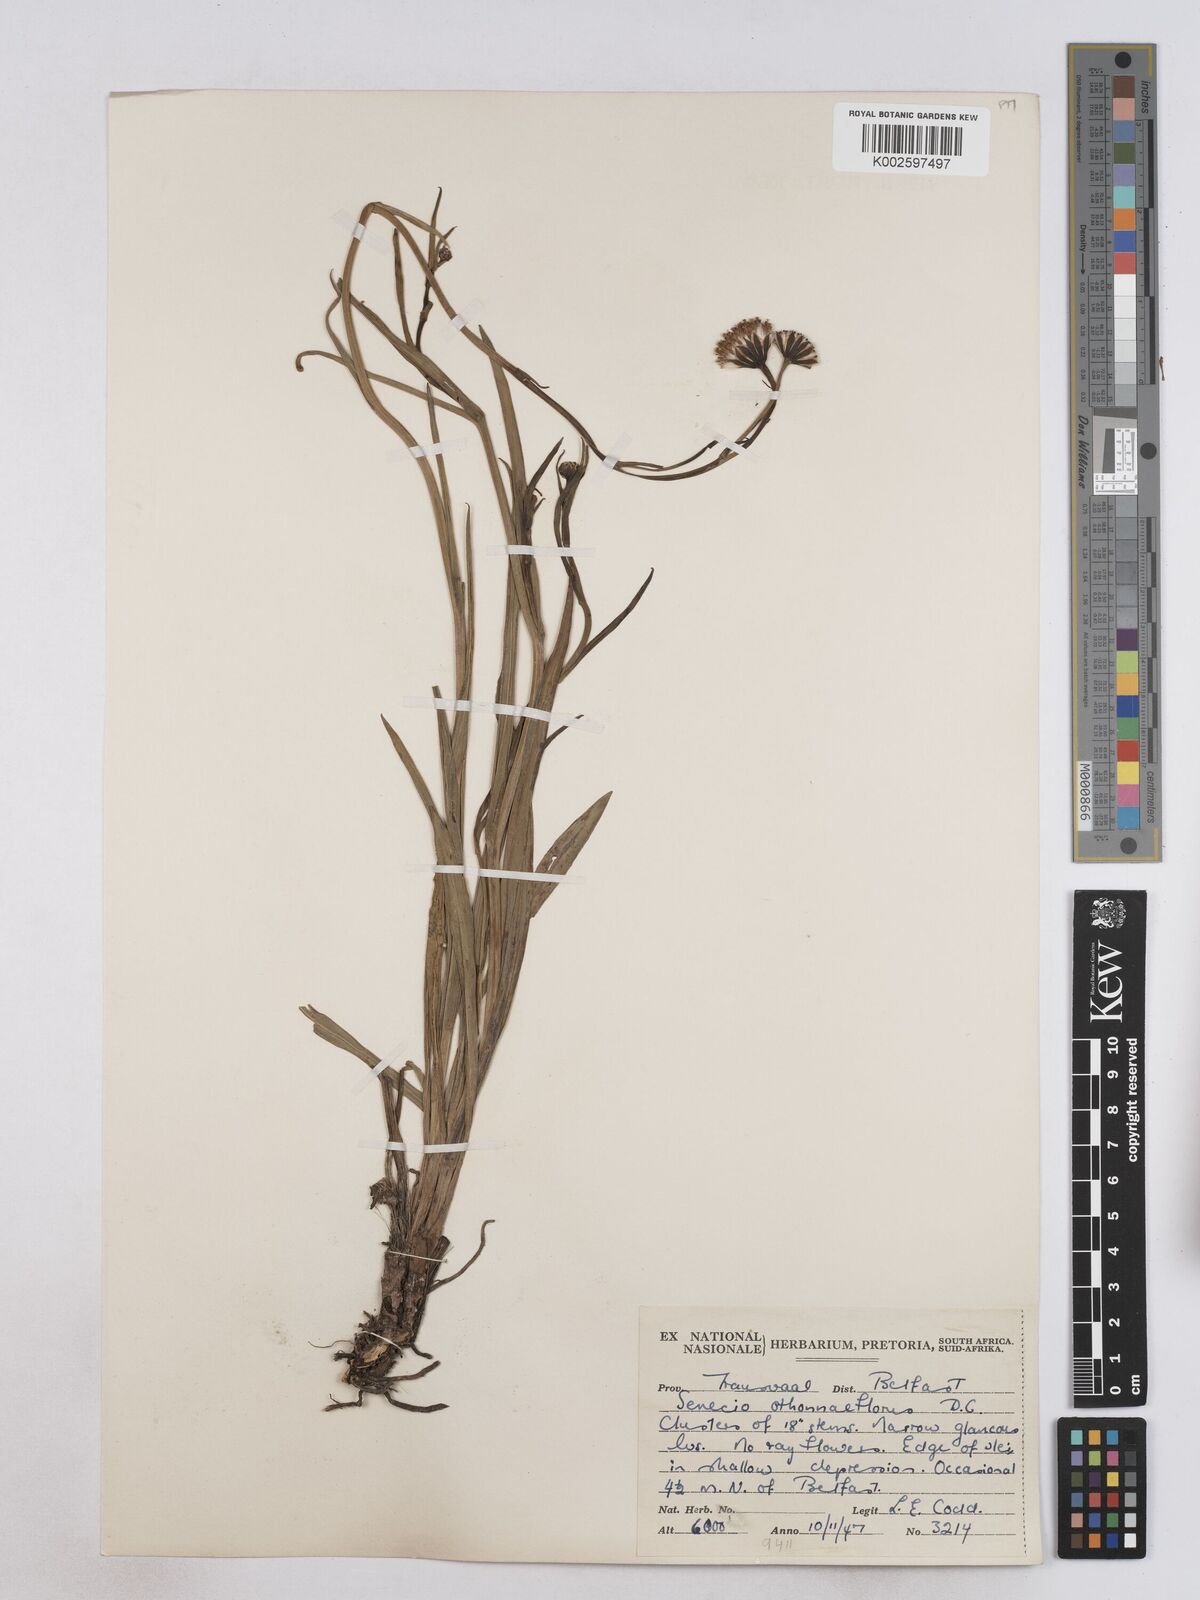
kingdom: Plantae
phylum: Tracheophyta
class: Magnoliopsida
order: Asterales
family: Asteraceae
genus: Senecio
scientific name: Senecio othonniflorus
